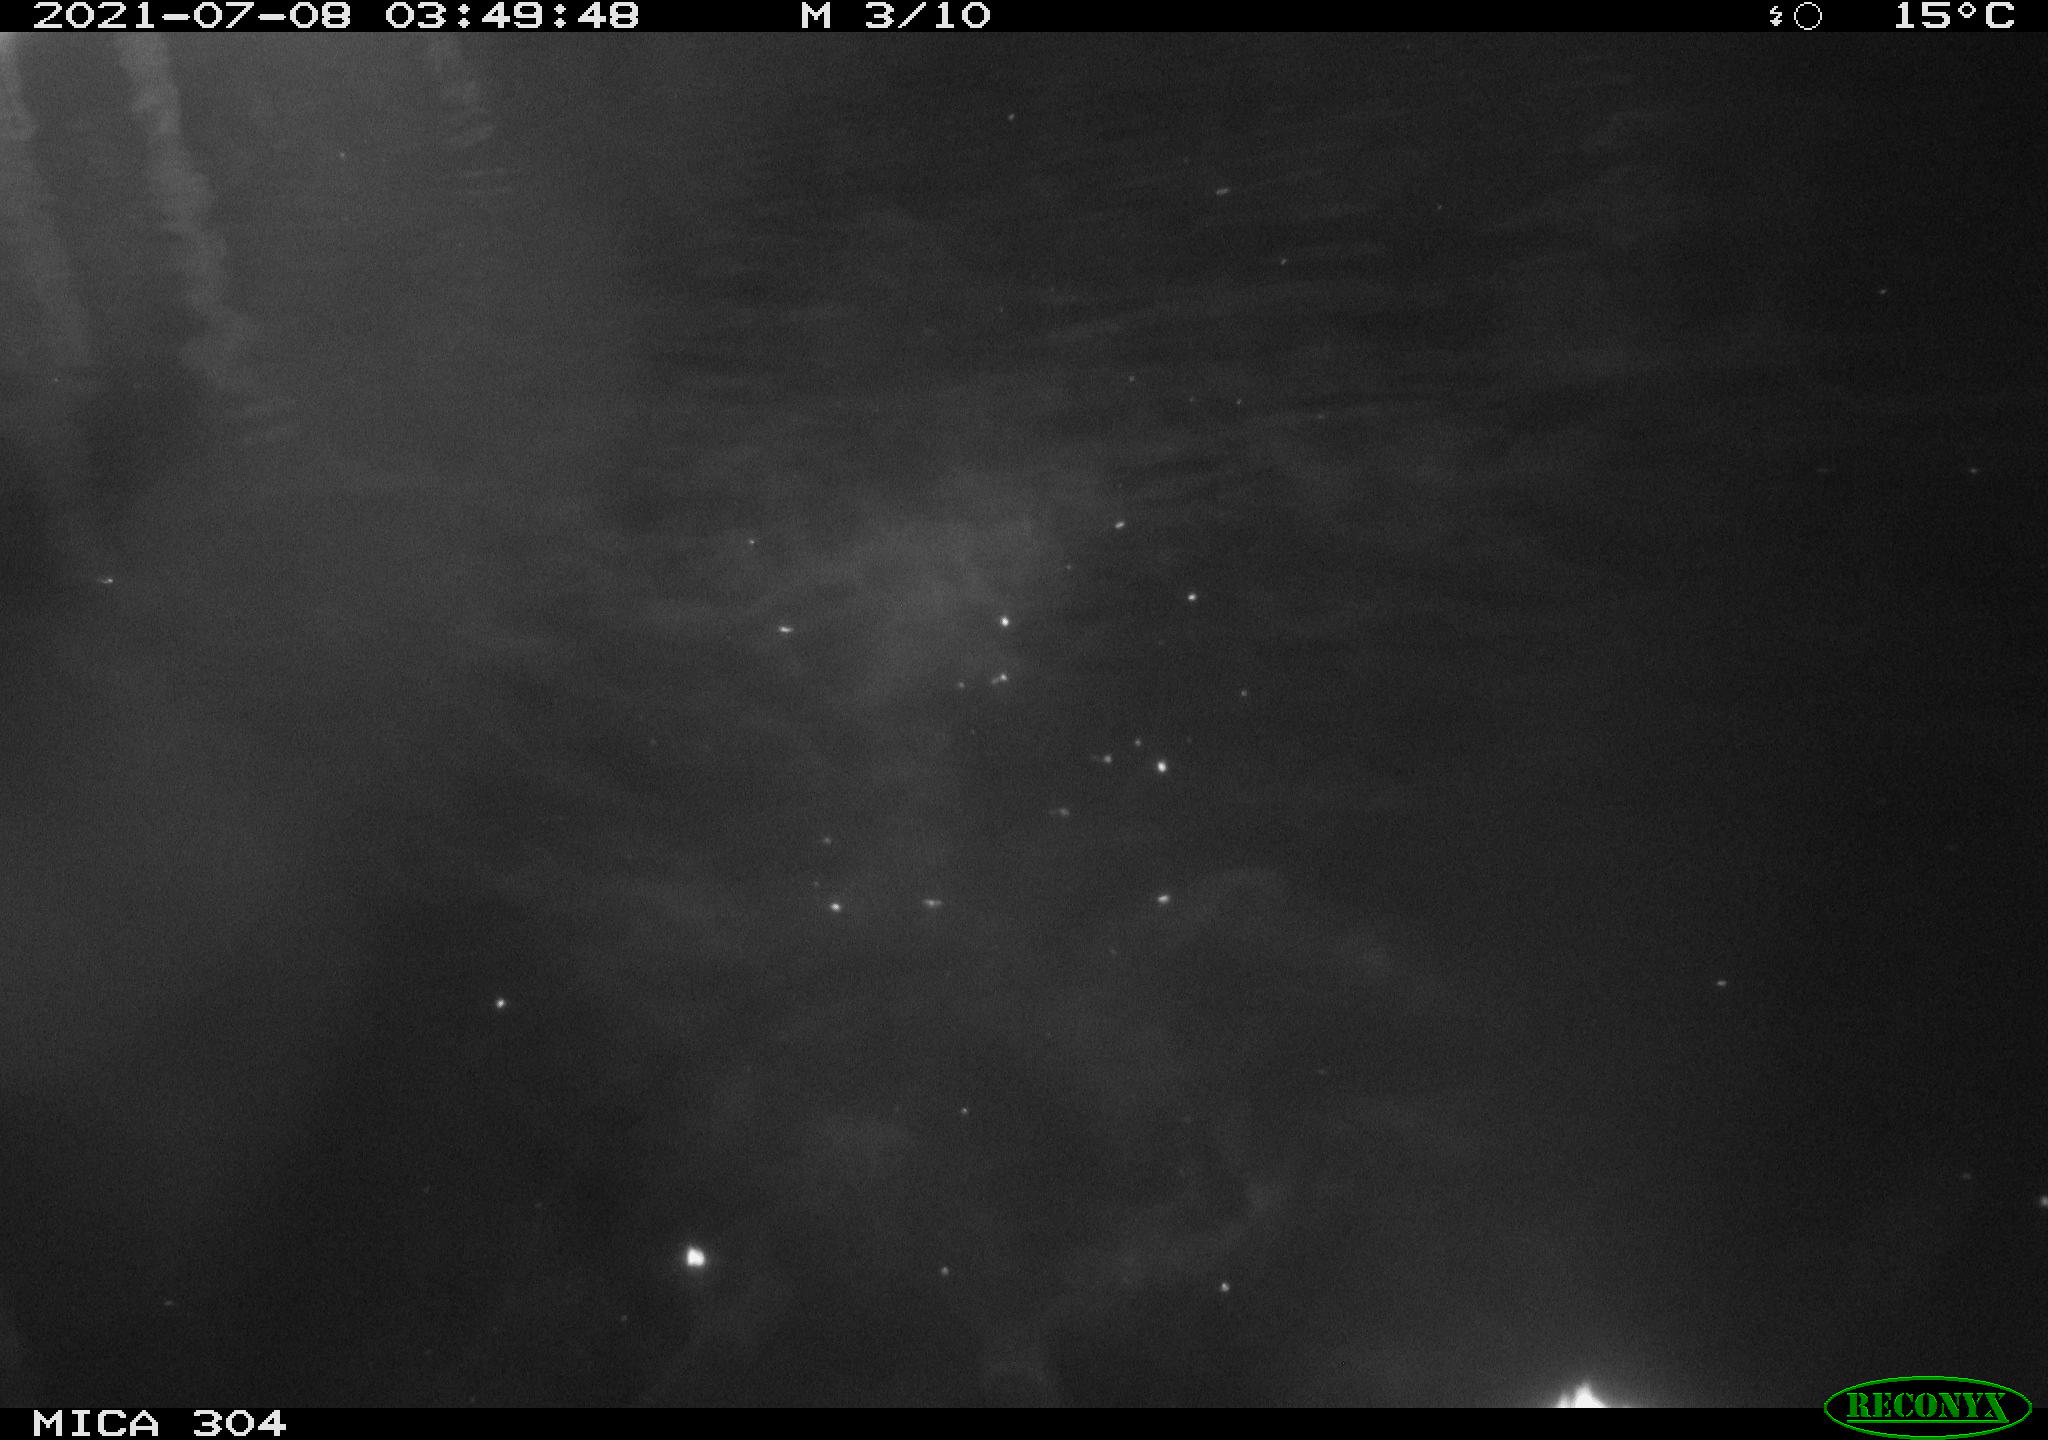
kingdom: Animalia
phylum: Chordata
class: Aves
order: Anseriformes
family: Anatidae
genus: Anas
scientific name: Anas platyrhynchos
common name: Mallard
